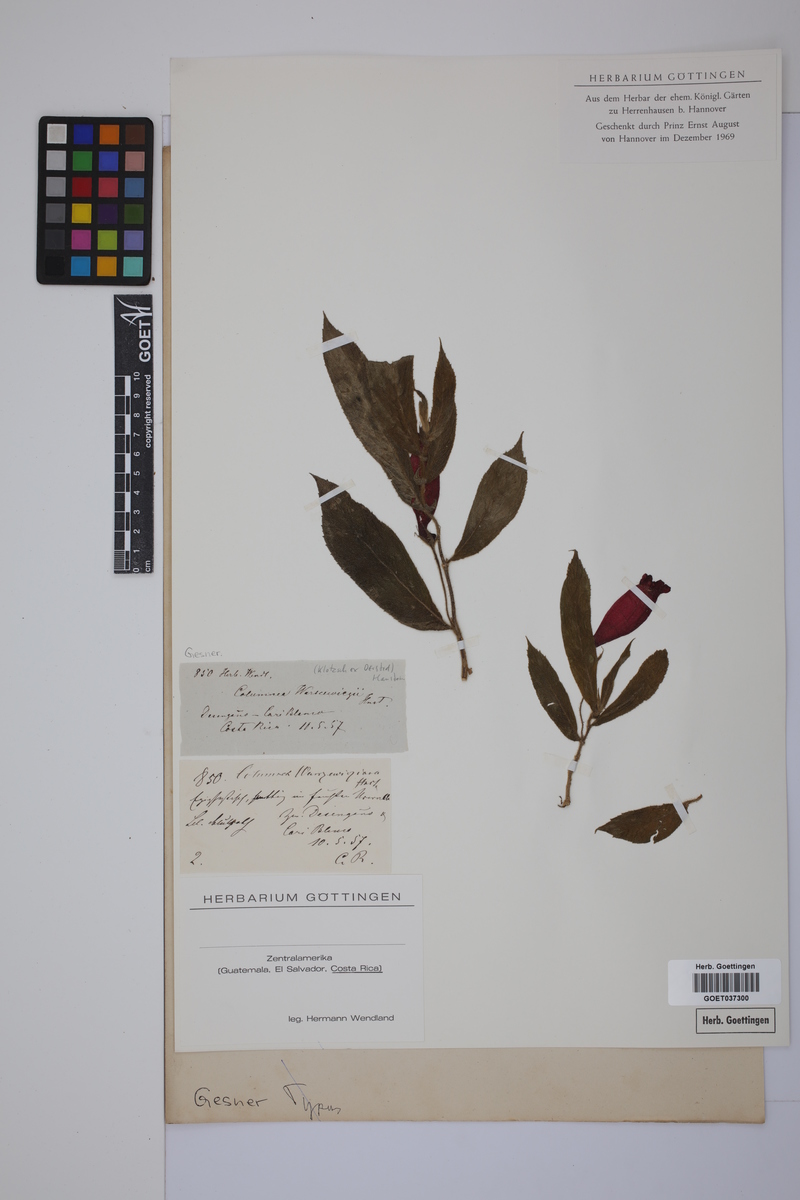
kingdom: Plantae
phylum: Tracheophyta
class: Magnoliopsida
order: Lamiales
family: Gesneriaceae
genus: Columnea
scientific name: Columnea anisophylla
